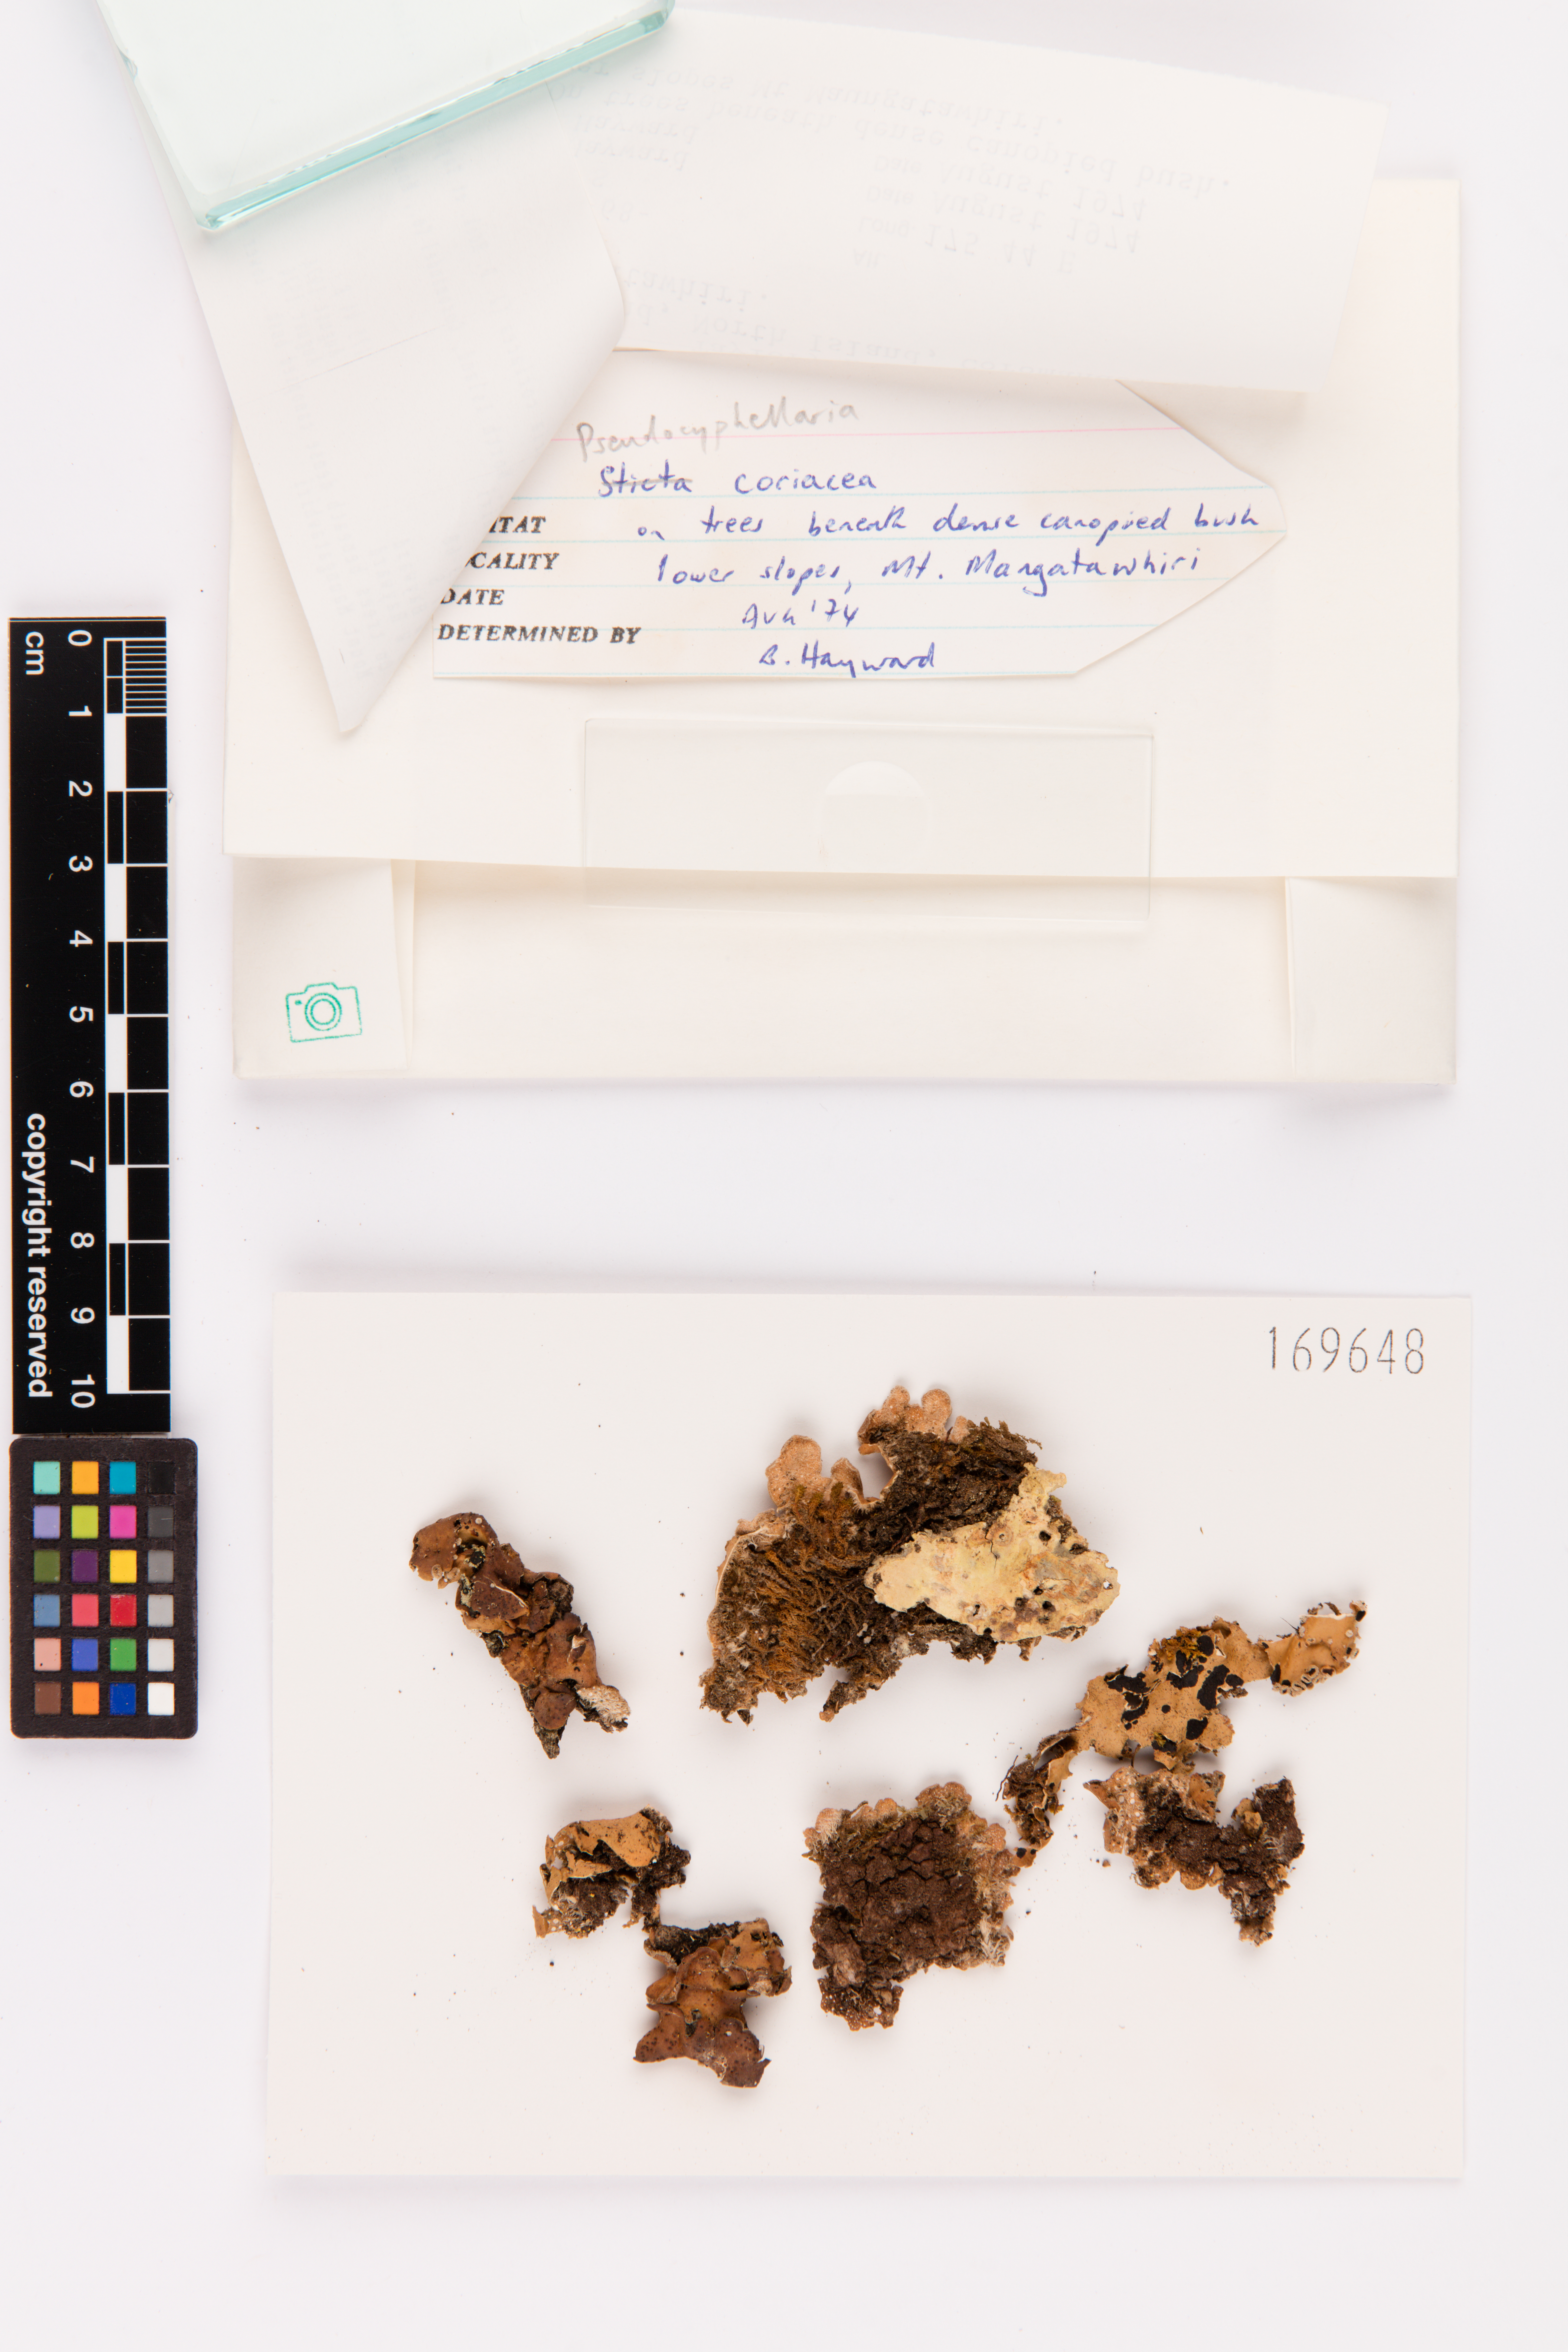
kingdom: Fungi
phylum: Ascomycota
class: Lecanoromycetes
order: Peltigerales
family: Lobariaceae
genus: Pseudocyphellaria
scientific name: Pseudocyphellaria coriacea
